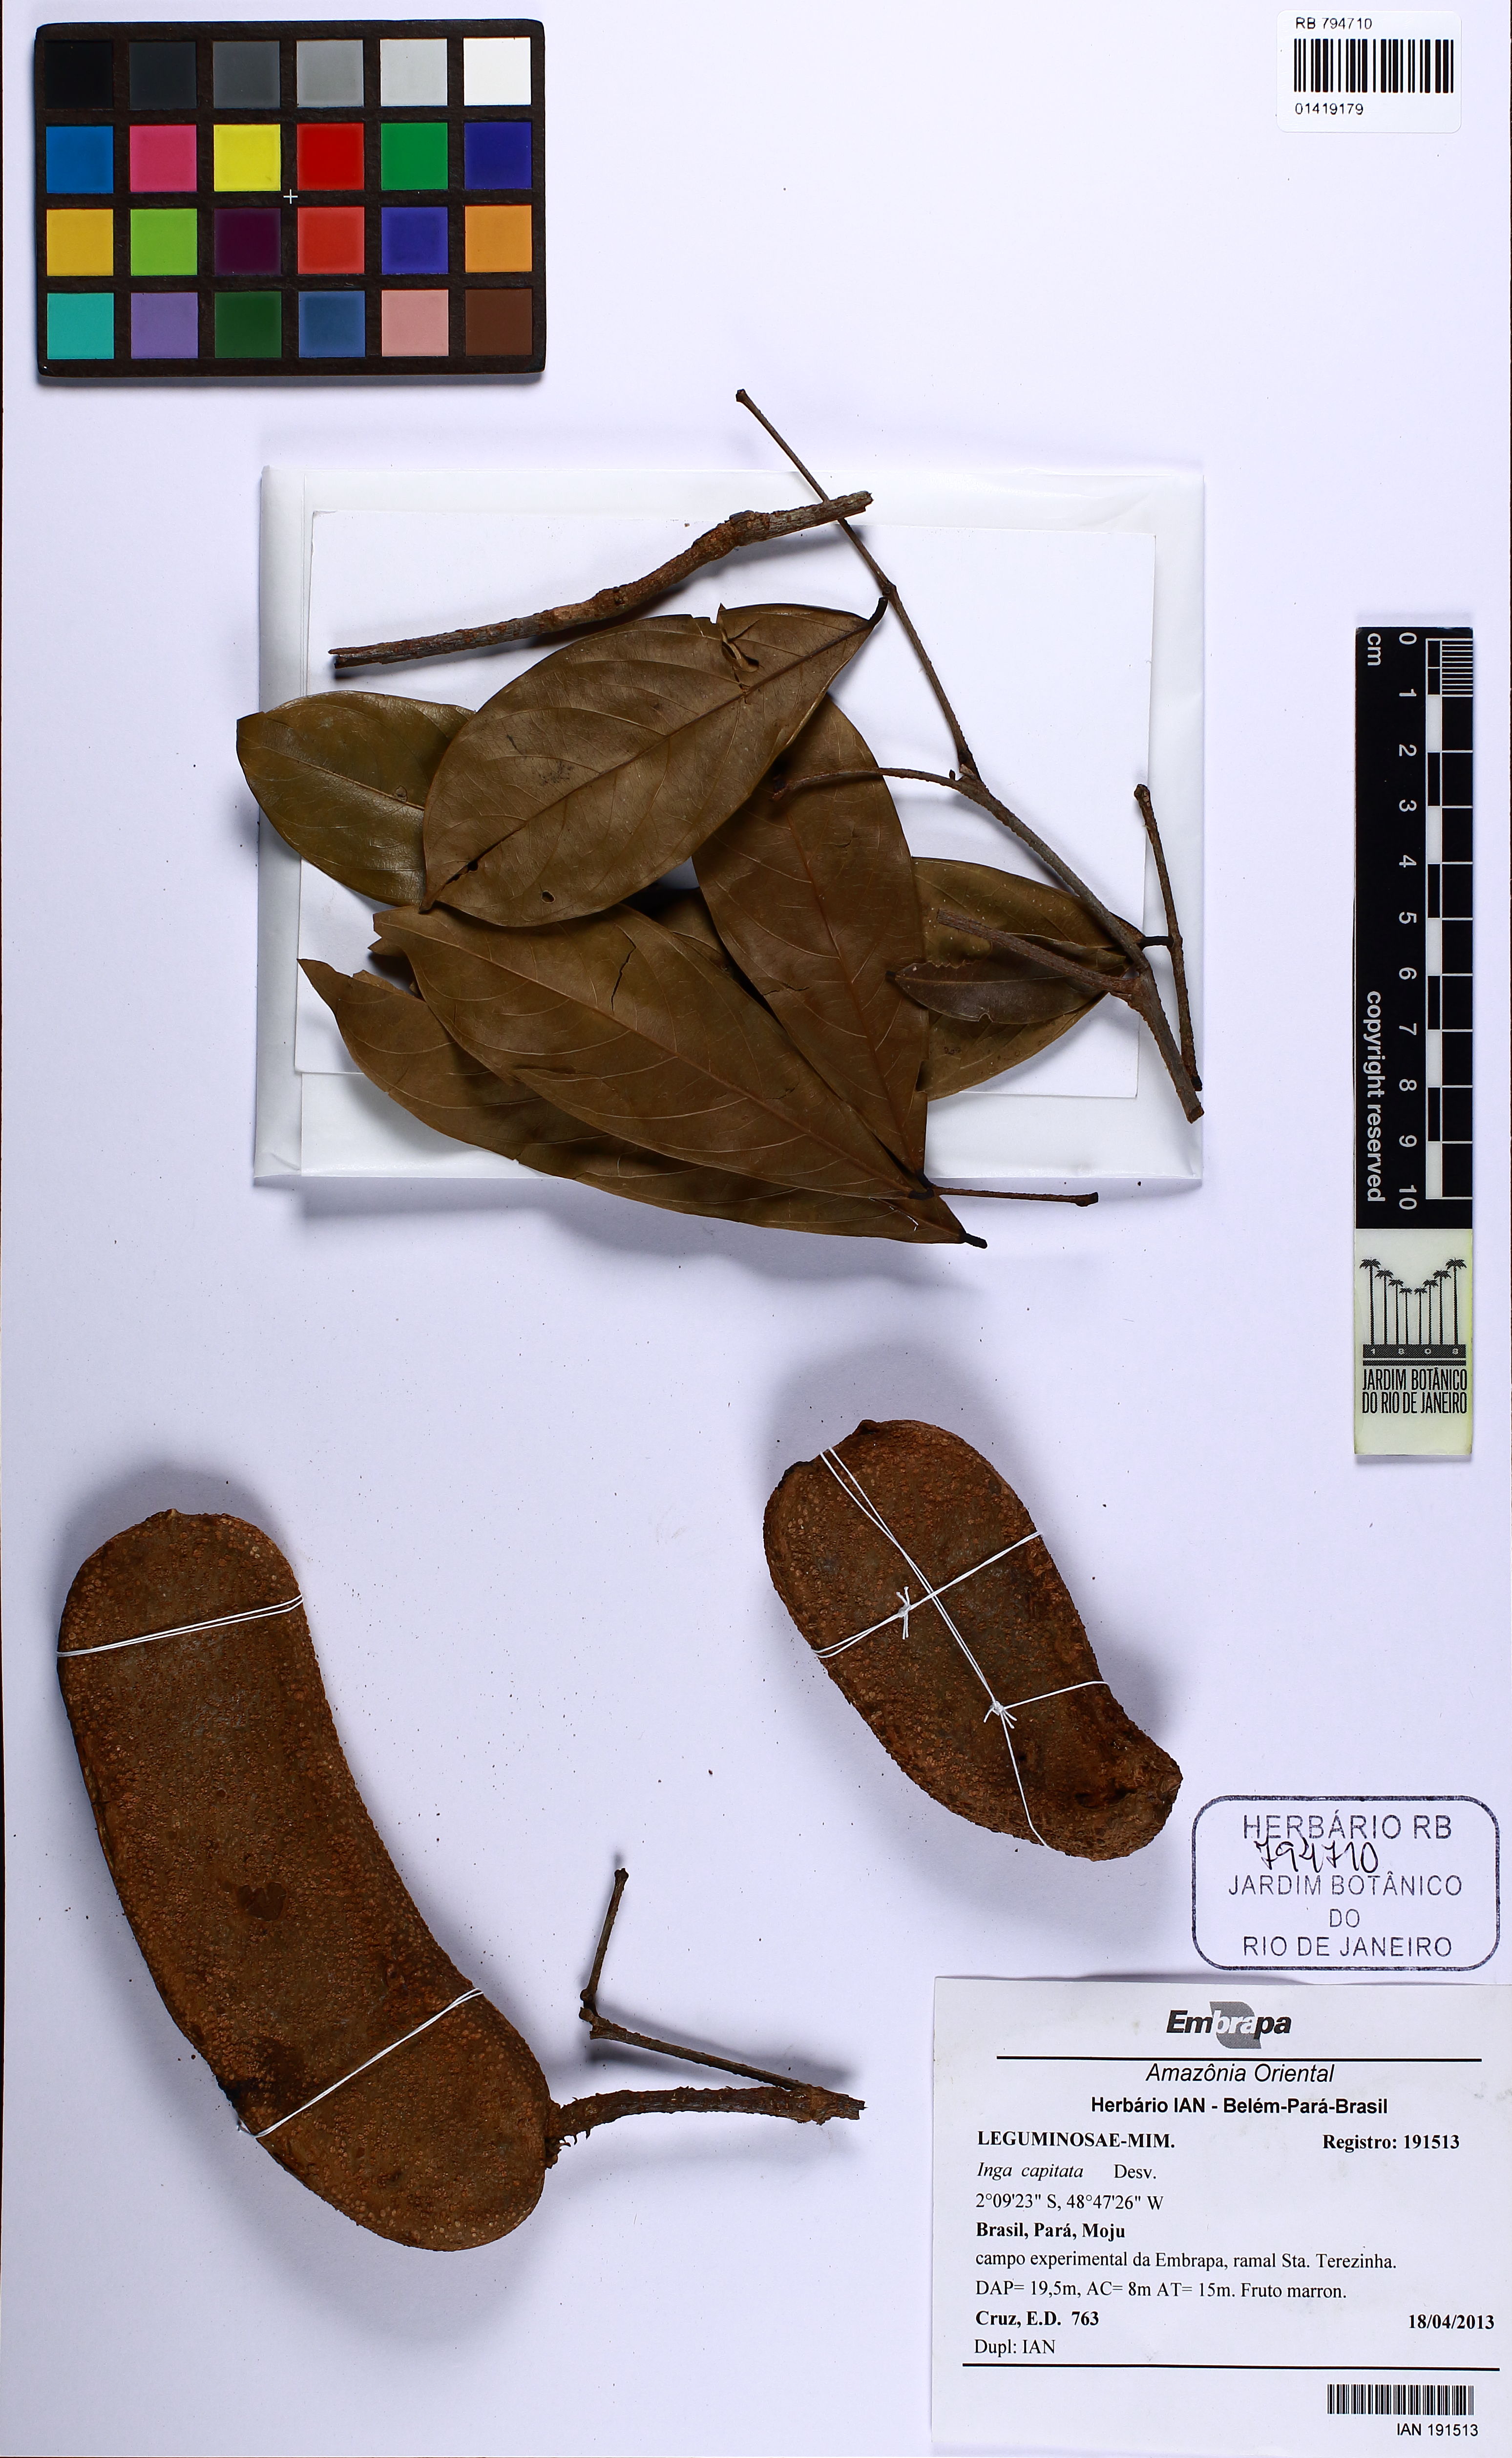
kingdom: Plantae
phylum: Tracheophyta
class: Magnoliopsida
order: Fabales
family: Fabaceae
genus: Inga
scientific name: Inga capitata
